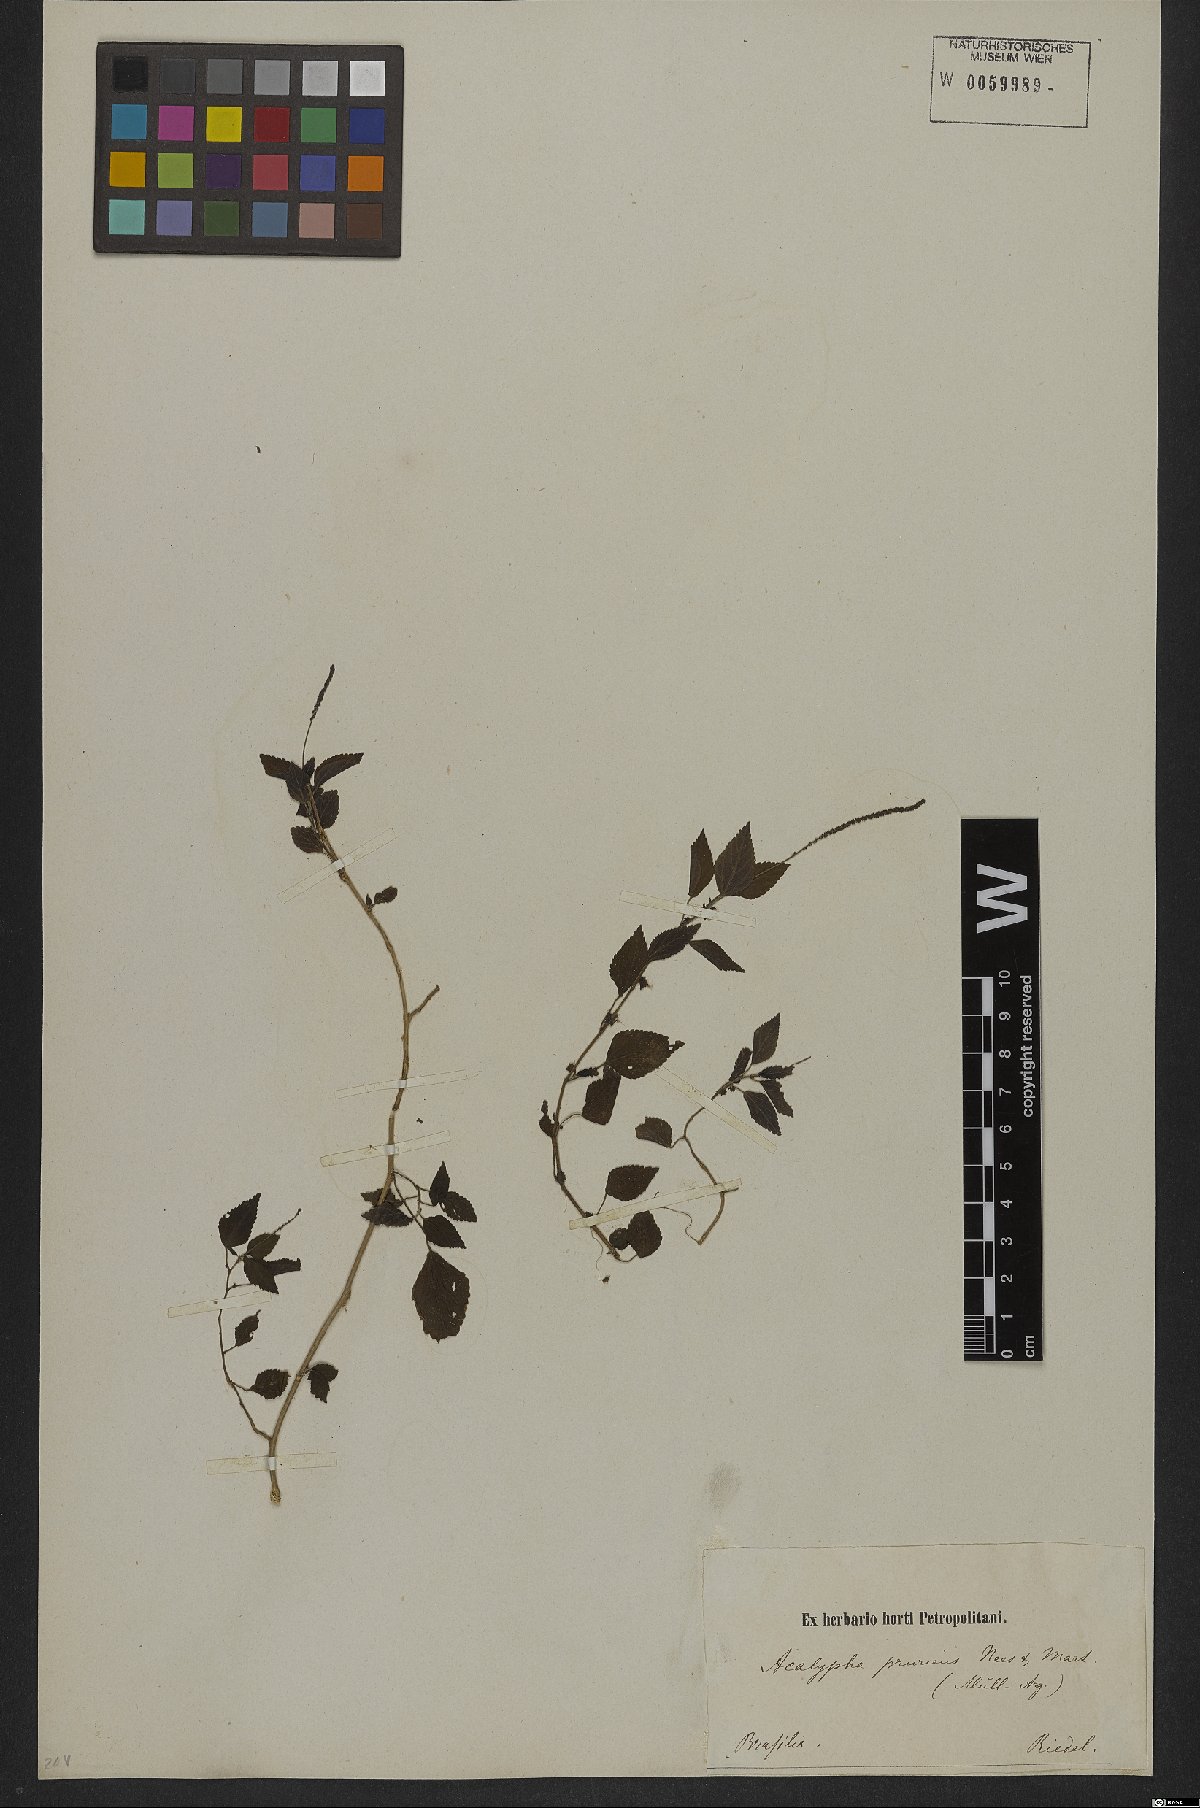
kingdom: Plantae
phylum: Tracheophyta
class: Magnoliopsida
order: Malpighiales
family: Euphorbiaceae
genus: Acalypha
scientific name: Acalypha pruriens
